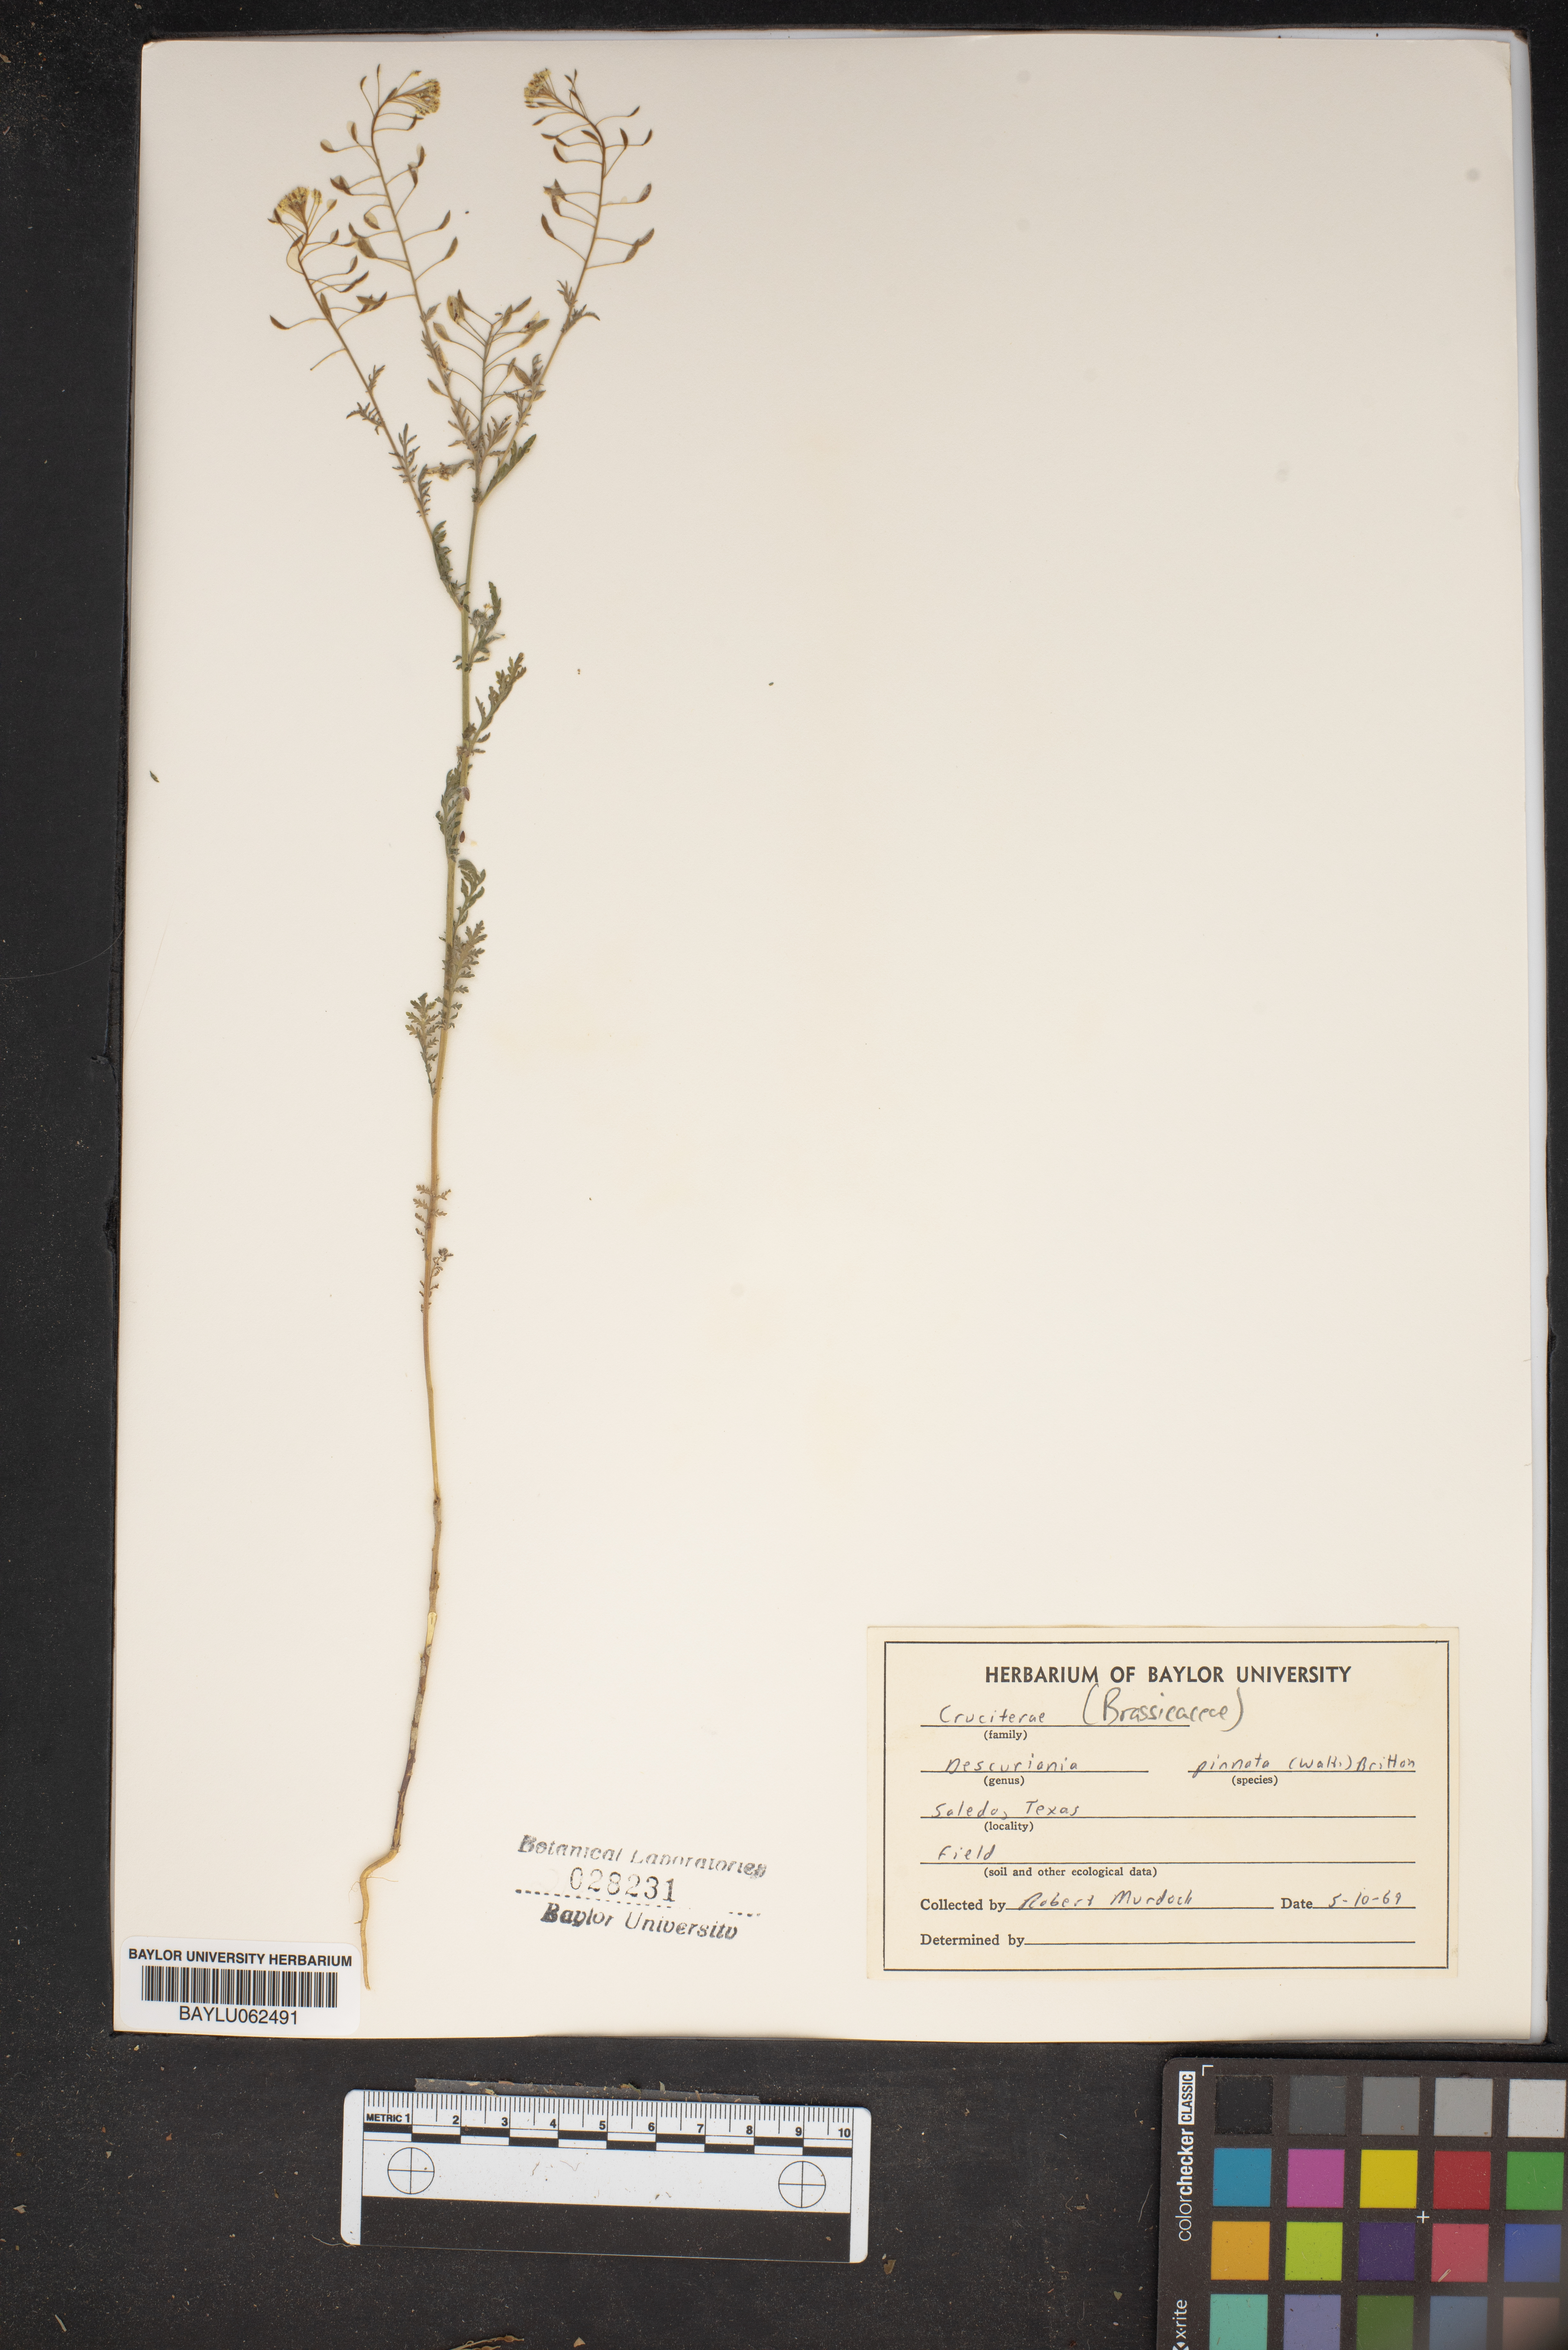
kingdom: Plantae
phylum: Tracheophyta
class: Magnoliopsida
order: Brassicales
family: Brassicaceae
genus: Descurainia
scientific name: Descurainia pinnata
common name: Western tansy mustard
